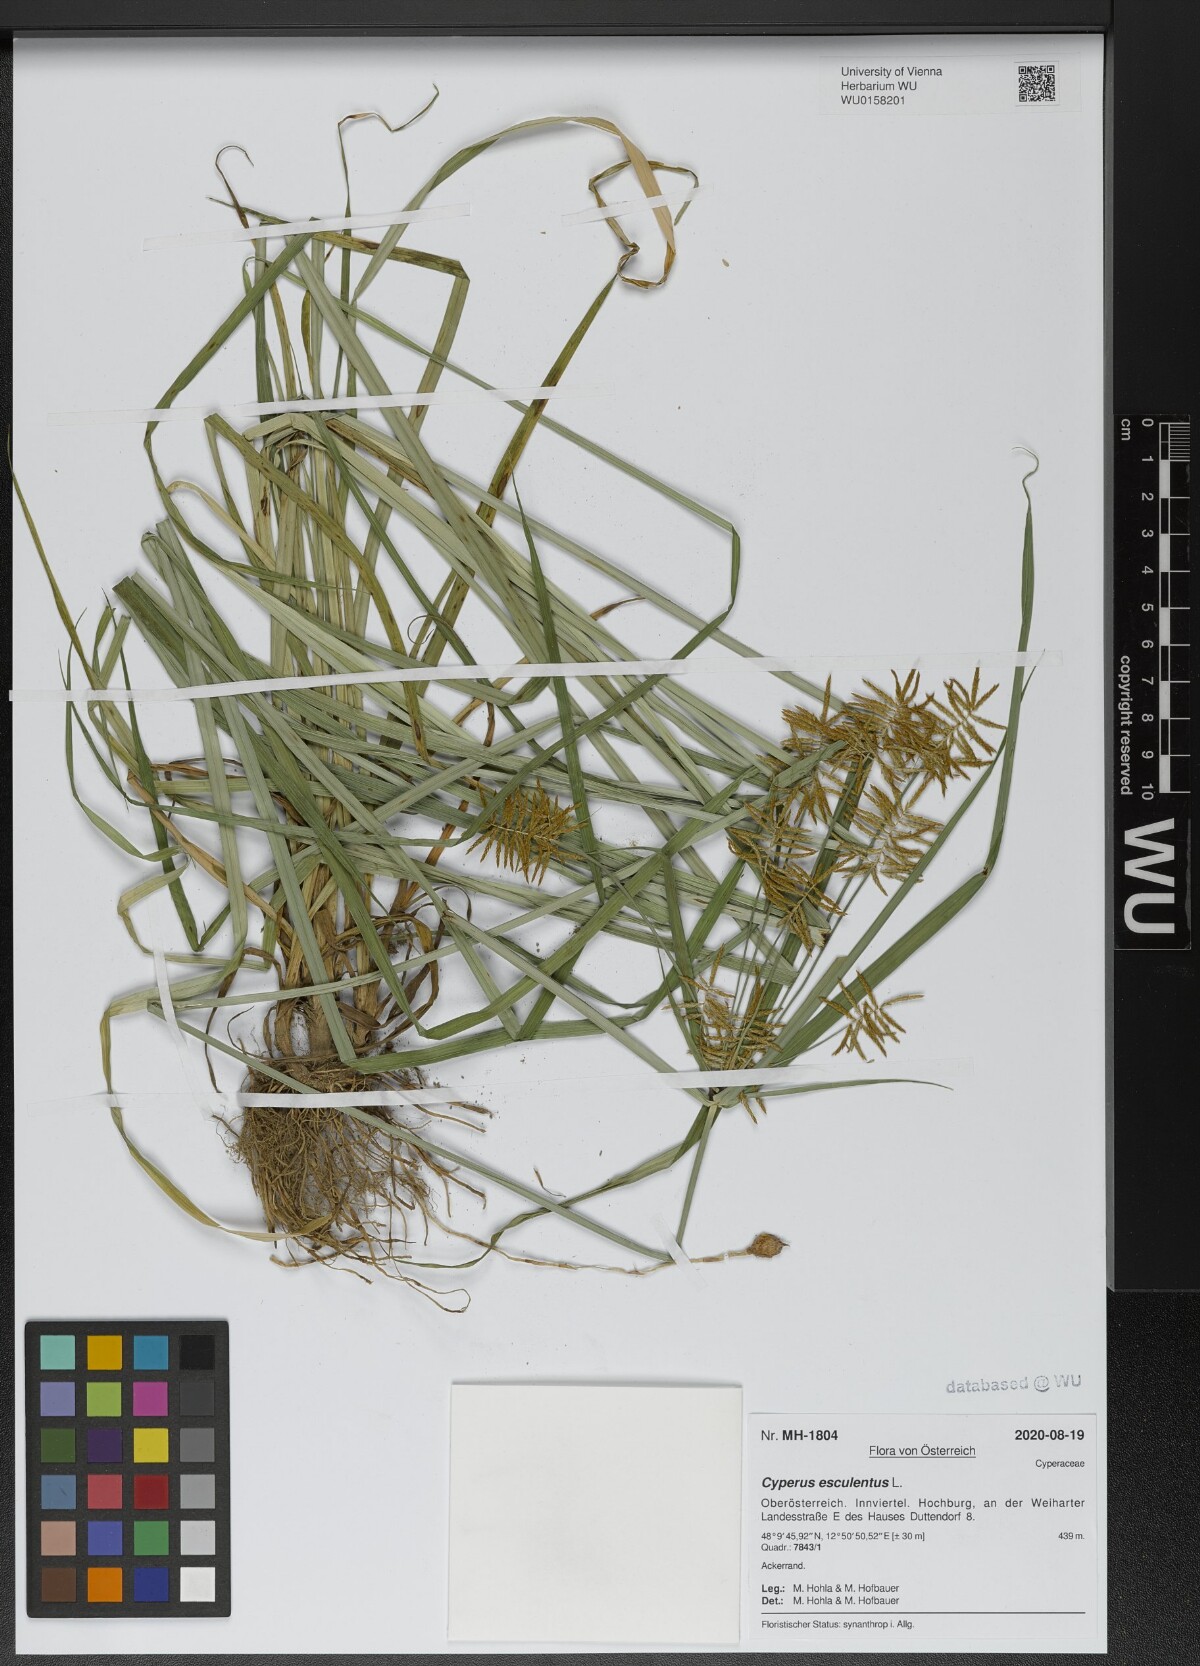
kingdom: Plantae
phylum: Tracheophyta
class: Liliopsida
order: Poales
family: Cyperaceae
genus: Cyperus
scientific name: Cyperus esculentus
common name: Yellow nutsedge
